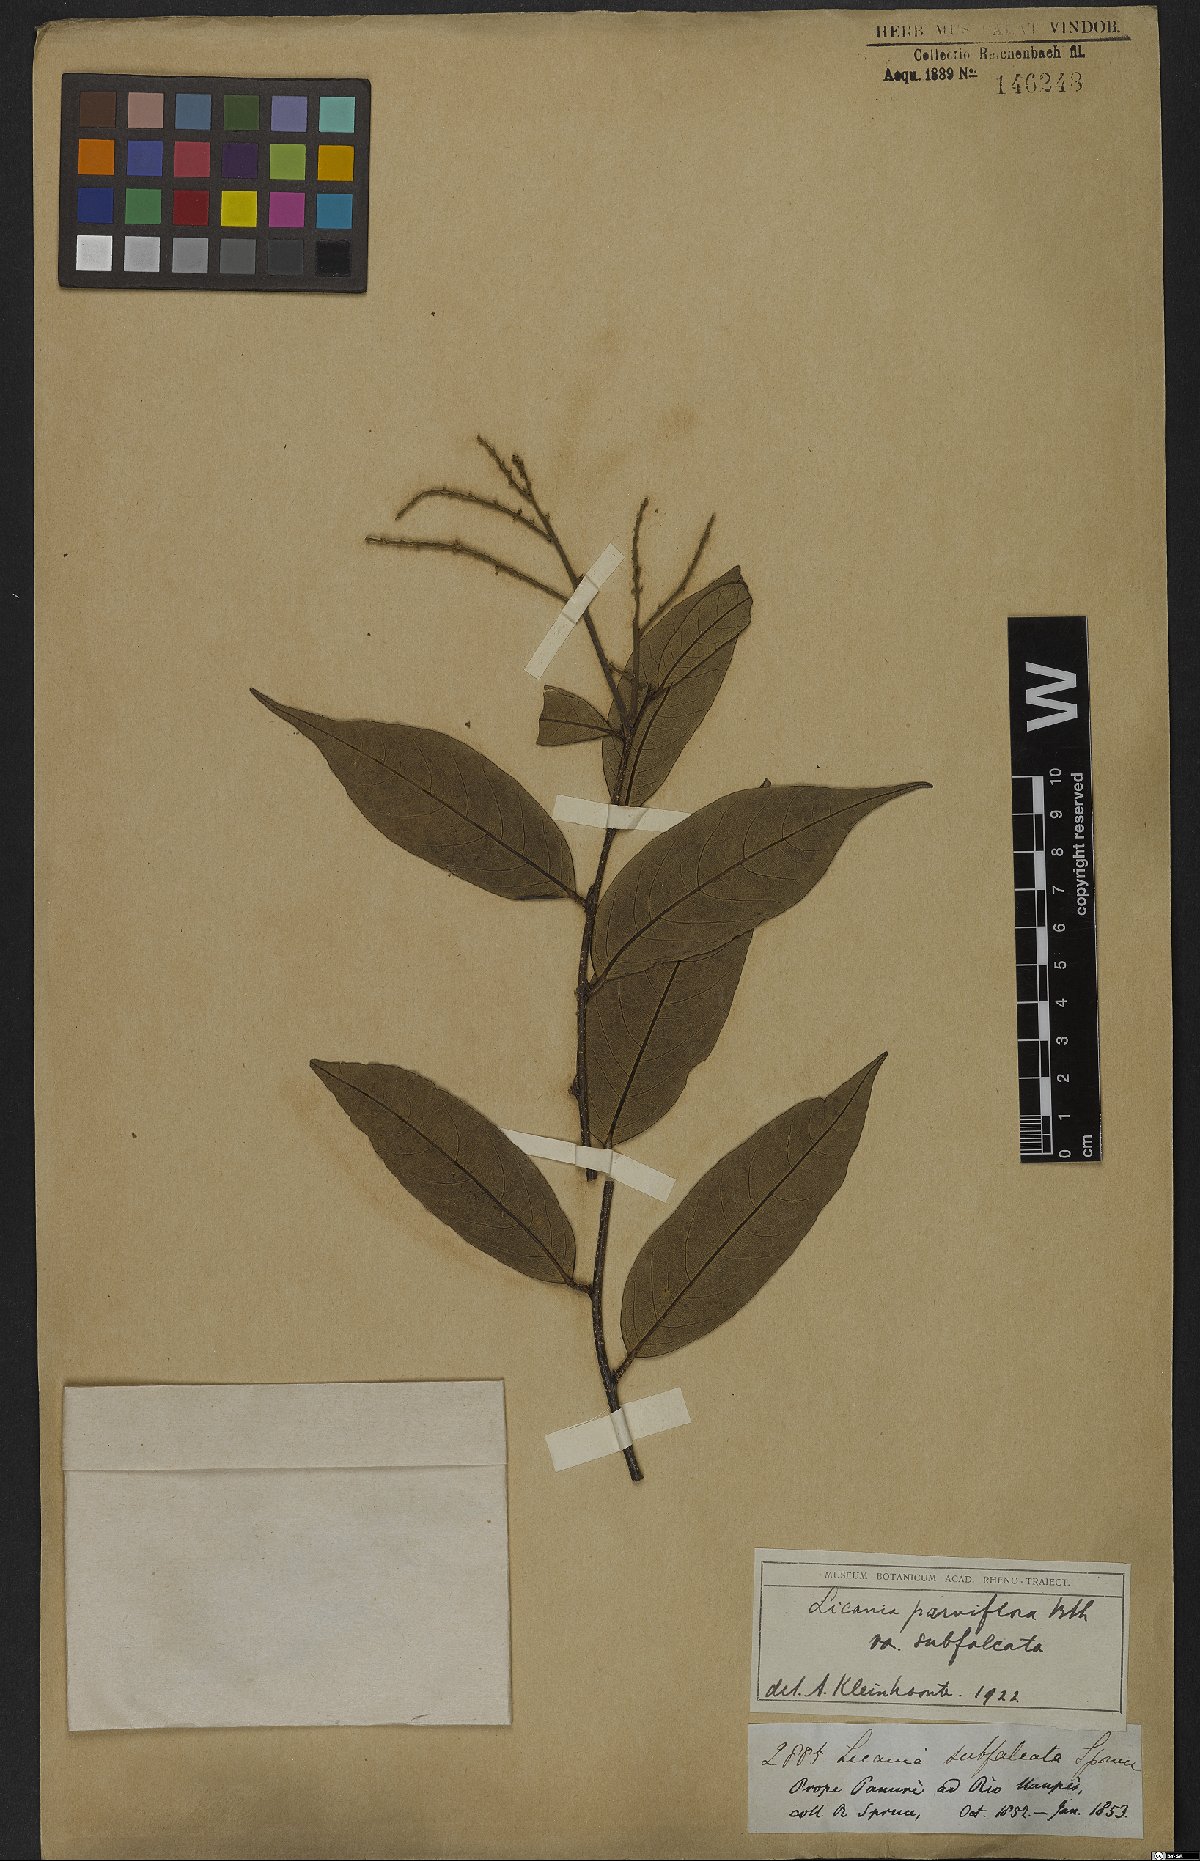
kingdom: Plantae
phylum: Tracheophyta
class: Magnoliopsida
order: Malpighiales
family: Chrysobalanaceae
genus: Leptobalanus
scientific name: Leptobalanus parviflorus
